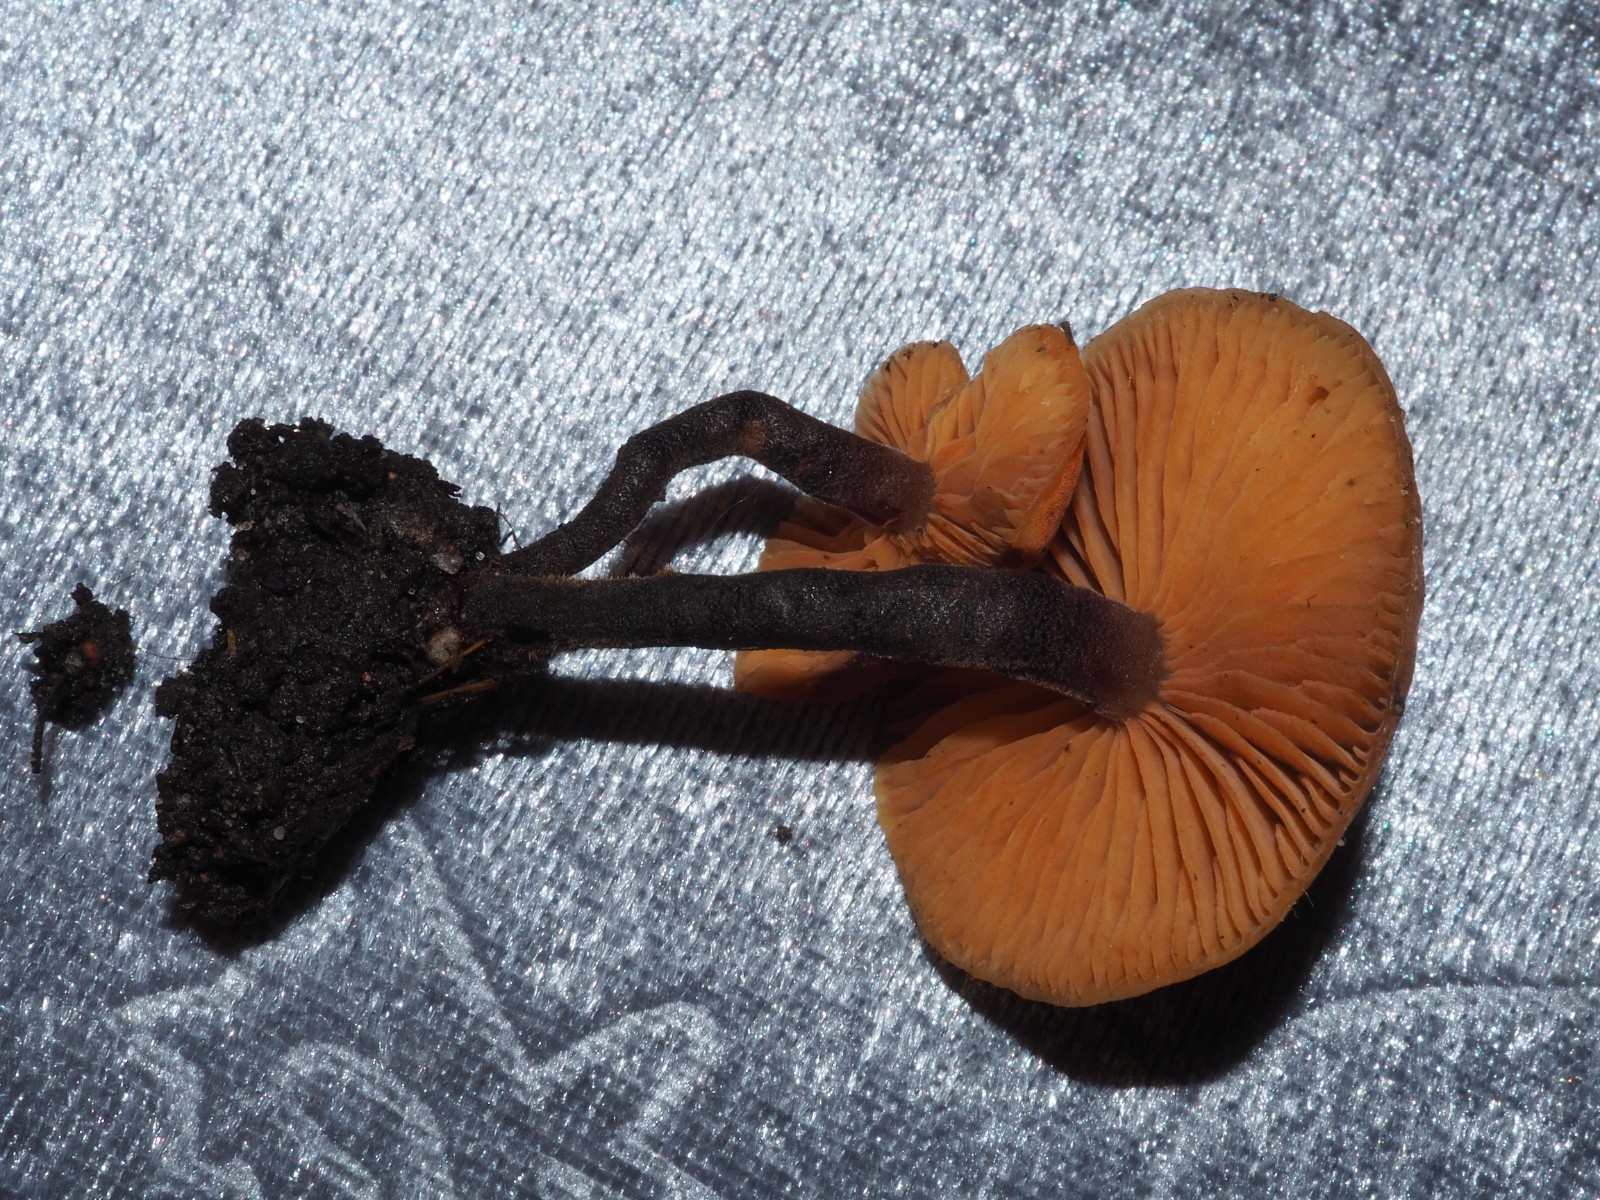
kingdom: Fungi
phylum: Basidiomycota
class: Agaricomycetes
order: Agaricales
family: Macrocystidiaceae
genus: Macrocystidia
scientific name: Macrocystidia cucumis
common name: agurkehat
